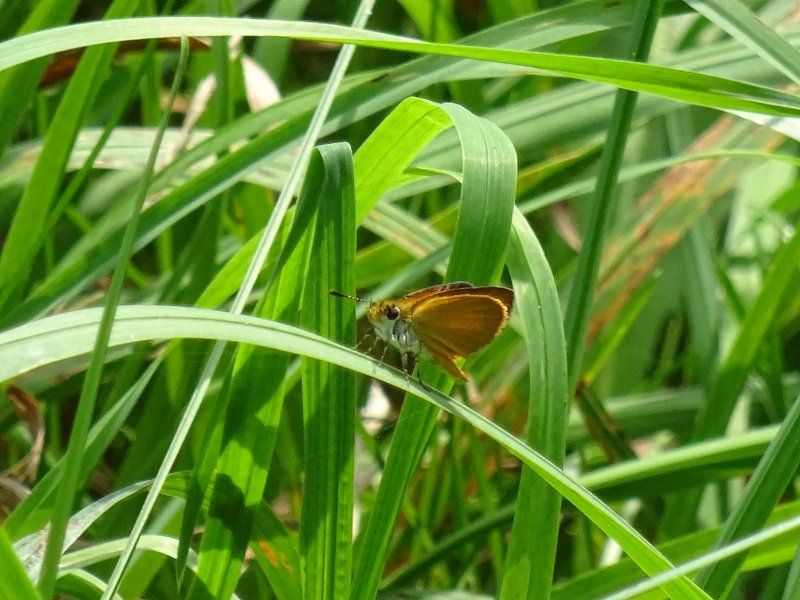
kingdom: Animalia
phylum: Arthropoda
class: Insecta
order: Lepidoptera
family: Hesperiidae
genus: Ancyloxypha
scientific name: Ancyloxypha numitor
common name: Least Skipper
